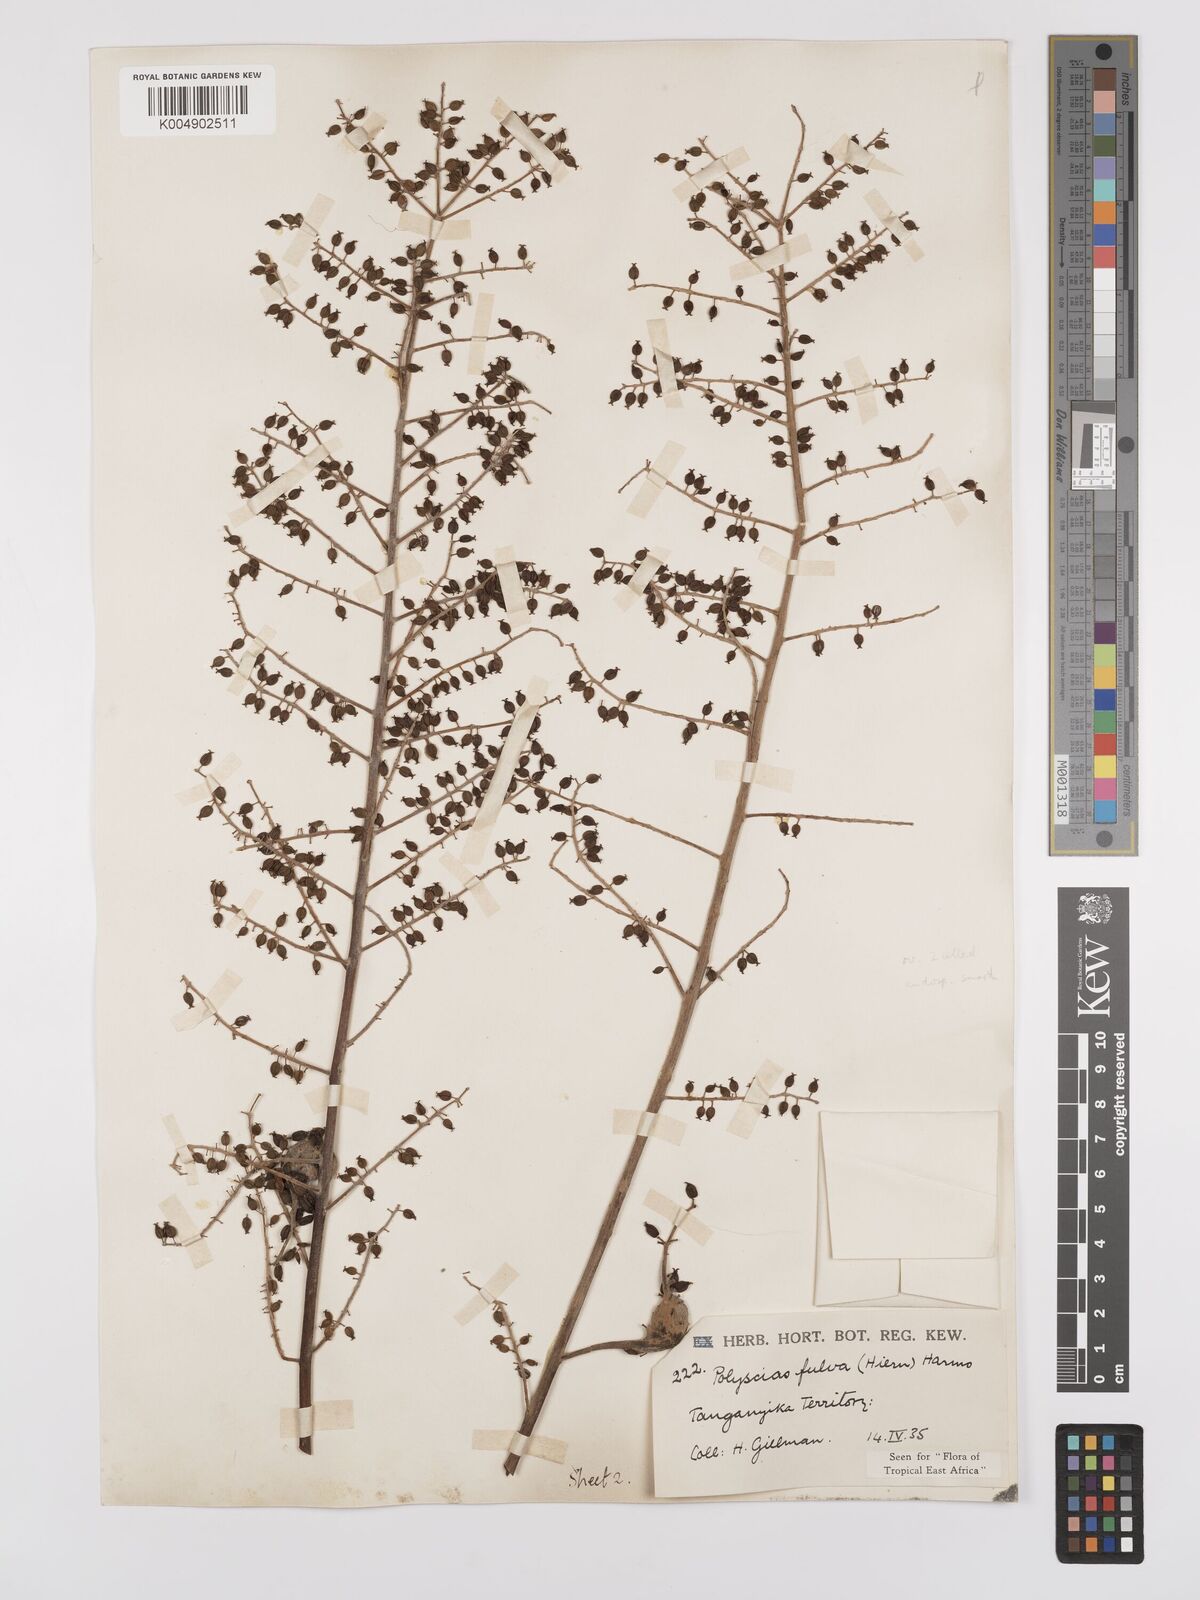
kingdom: Plantae
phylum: Tracheophyta
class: Magnoliopsida
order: Apiales
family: Araliaceae
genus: Polyscias
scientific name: Polyscias fulva
